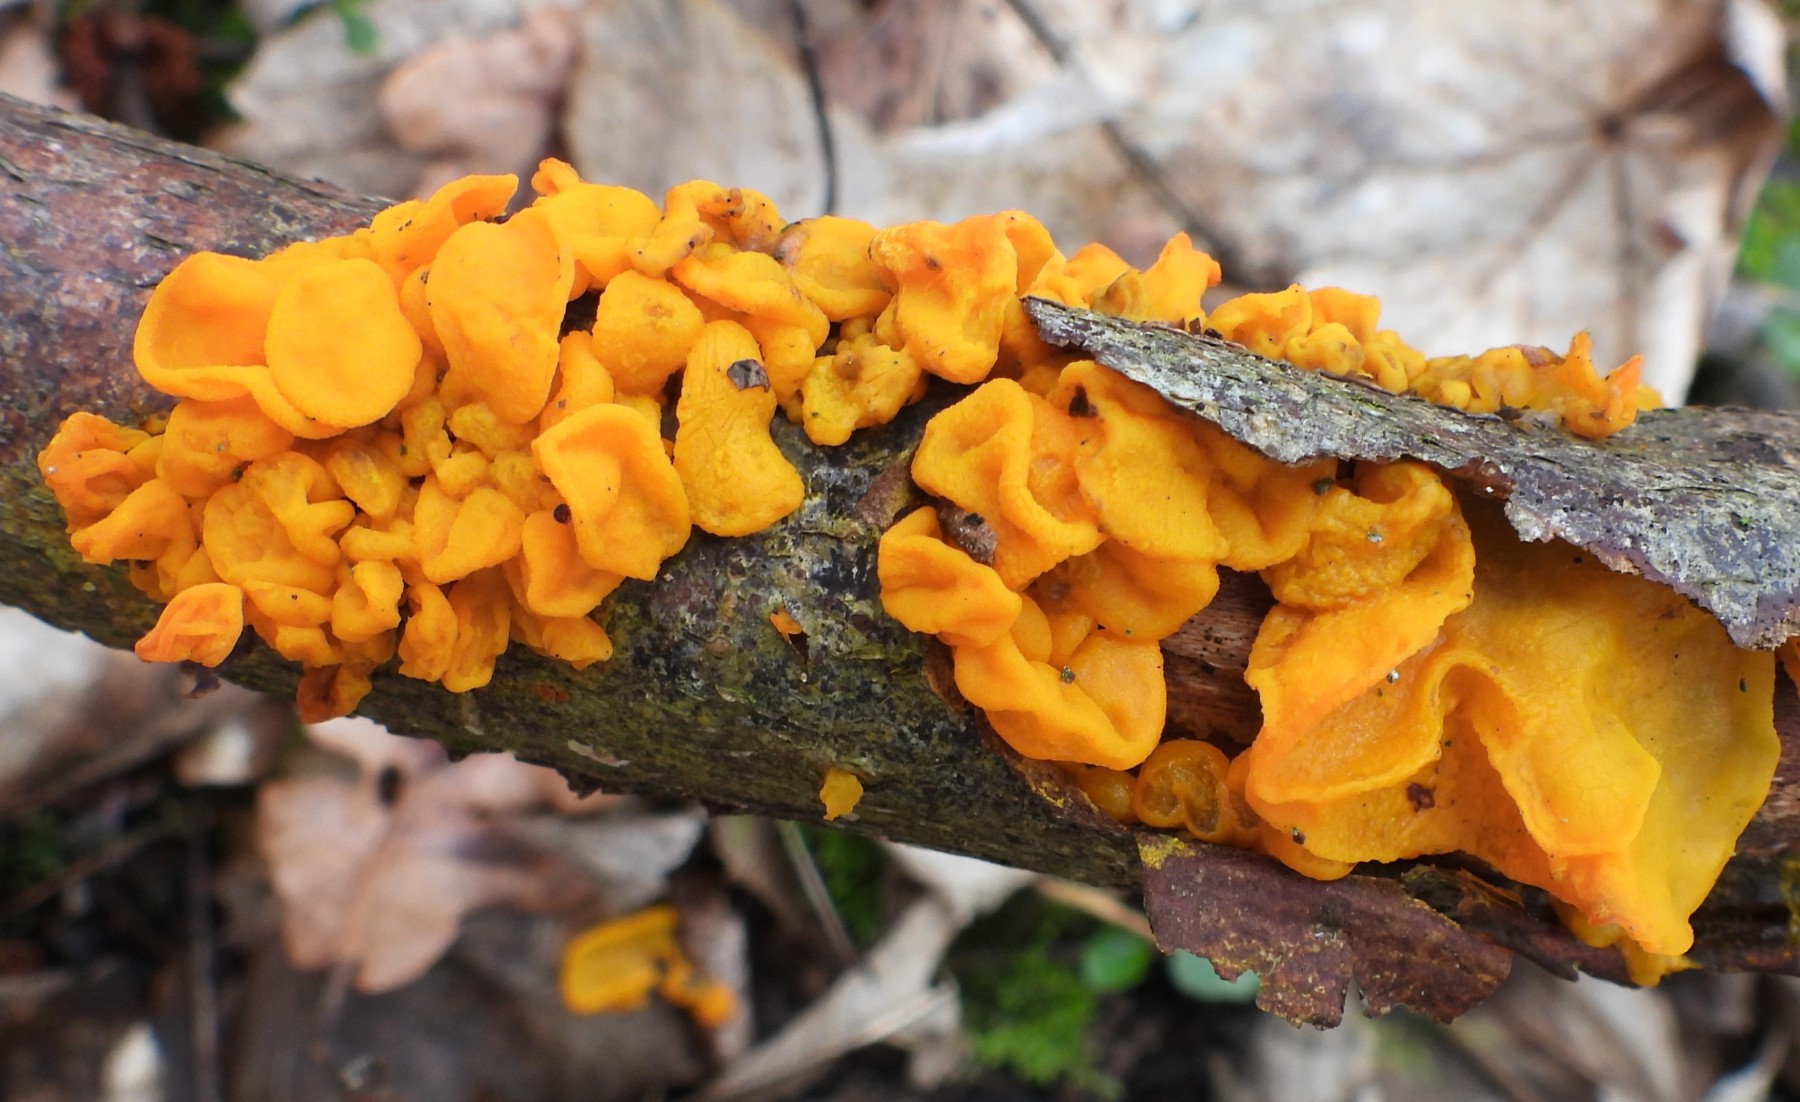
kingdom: Fungi
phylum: Basidiomycota
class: Tremellomycetes
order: Tremellales
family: Tremellaceae
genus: Tremella
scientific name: Tremella mesenterica
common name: gul bævresvamp
